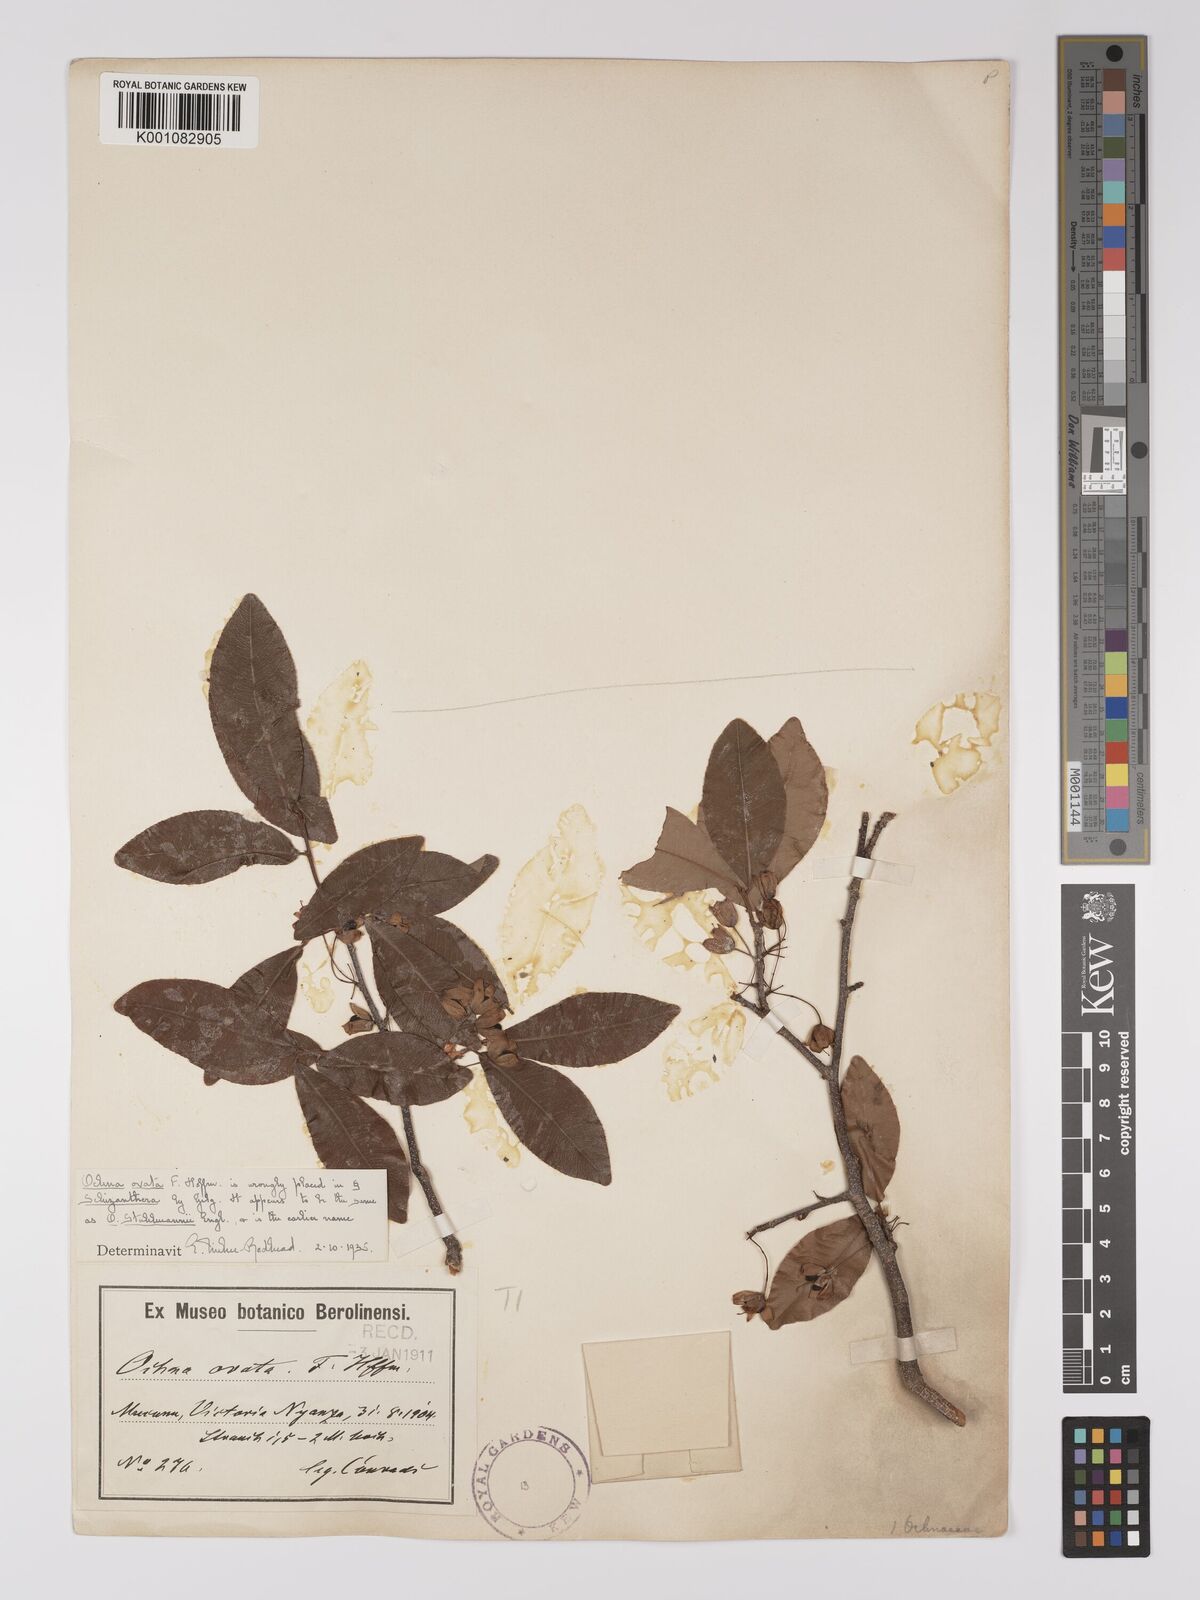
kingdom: Plantae
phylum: Tracheophyta
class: Magnoliopsida
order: Malpighiales
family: Ochnaceae
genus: Ochna
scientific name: Ochna ovata
